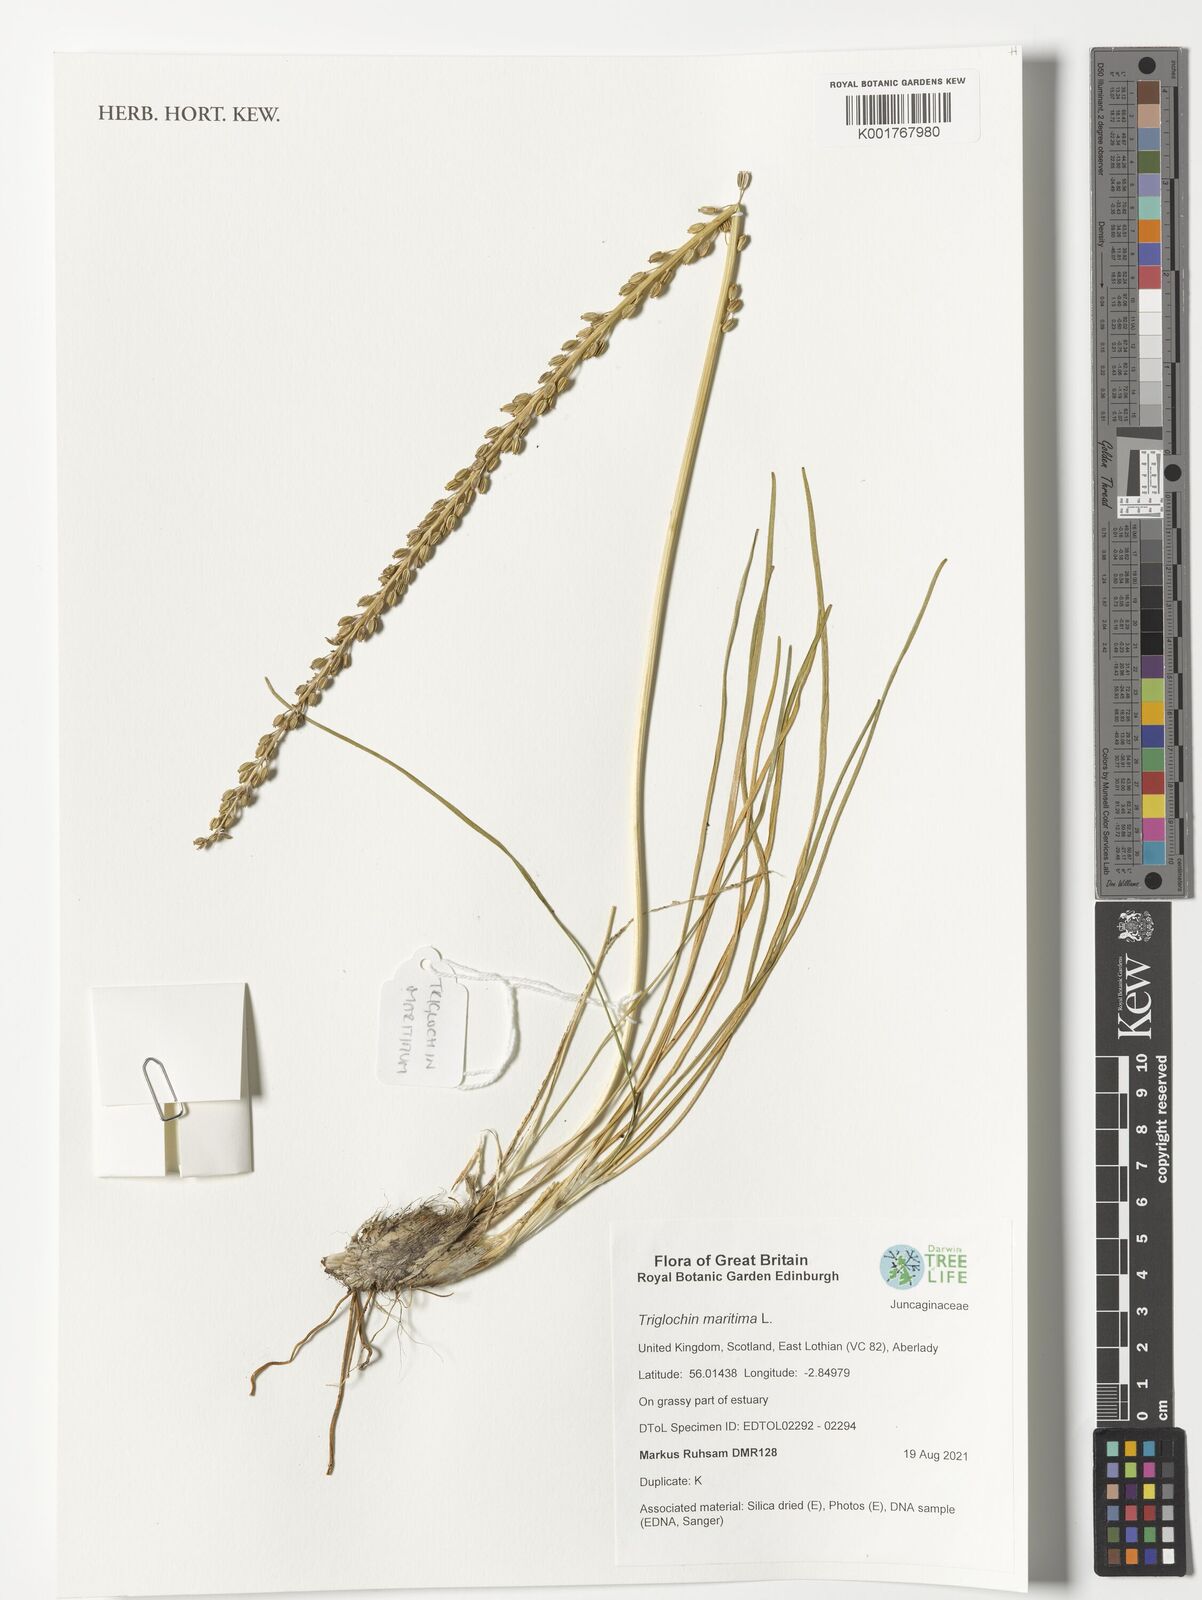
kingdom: Plantae
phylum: Tracheophyta
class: Liliopsida
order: Alismatales
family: Juncaginaceae
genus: Triglochin
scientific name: Triglochin maritima
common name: Sea arrowgrass
